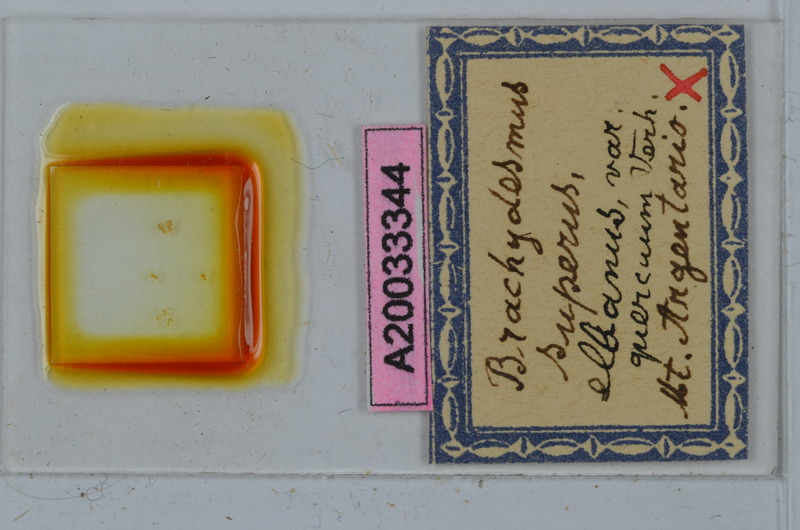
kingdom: Animalia
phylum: Arthropoda
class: Diplopoda
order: Polydesmida
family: Polydesmidae
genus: Brachydesmus
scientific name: Brachydesmus superus
